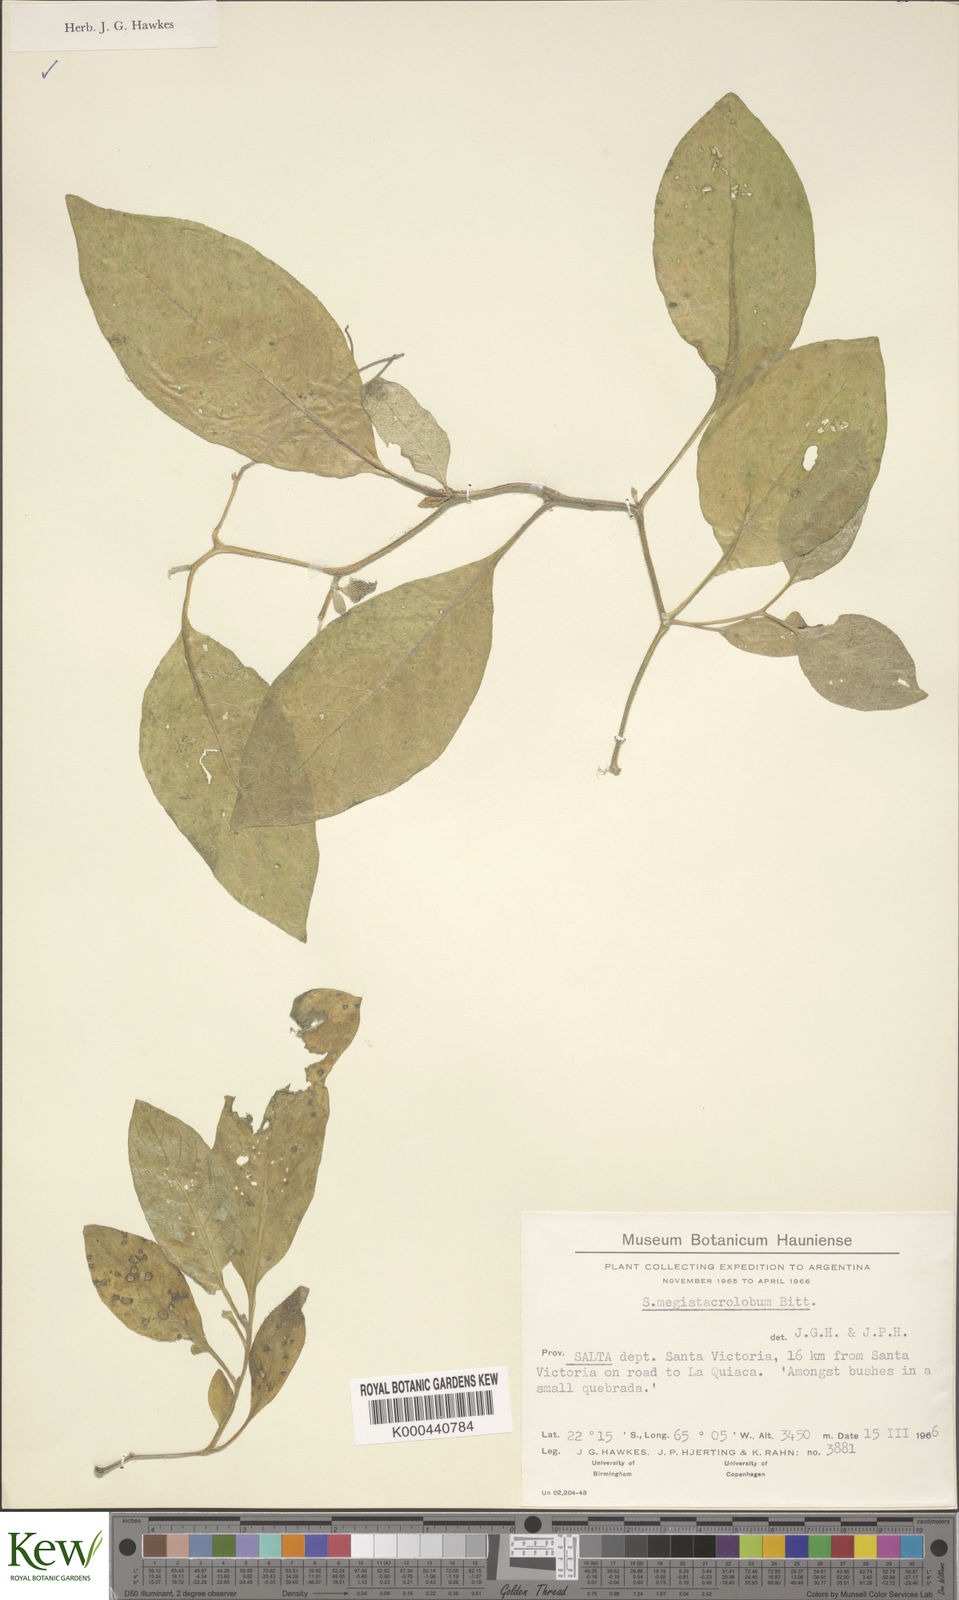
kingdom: Plantae
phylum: Tracheophyta
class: Magnoliopsida
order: Solanales
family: Solanaceae
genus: Solanum
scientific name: Solanum boliviense
